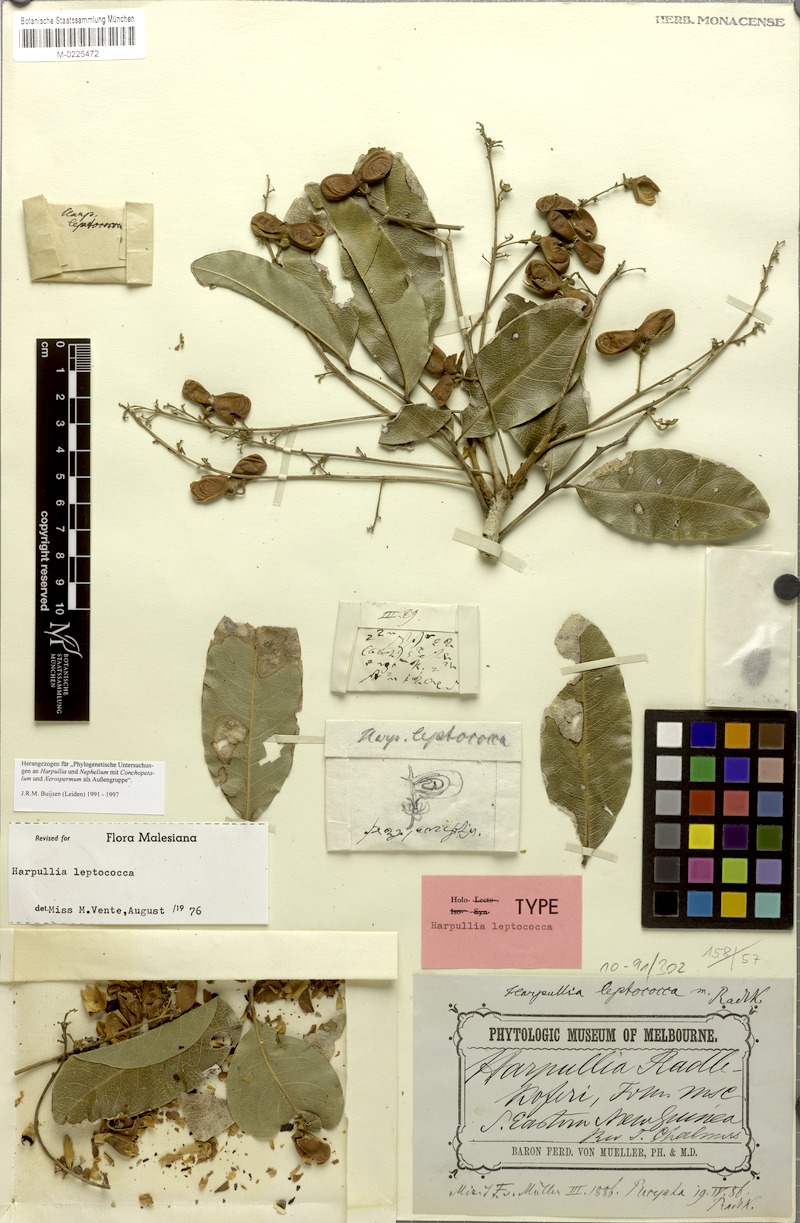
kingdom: Plantae
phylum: Tracheophyta
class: Magnoliopsida
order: Sapindales
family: Sapindaceae
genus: Harpullia
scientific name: Harpullia leptococca
